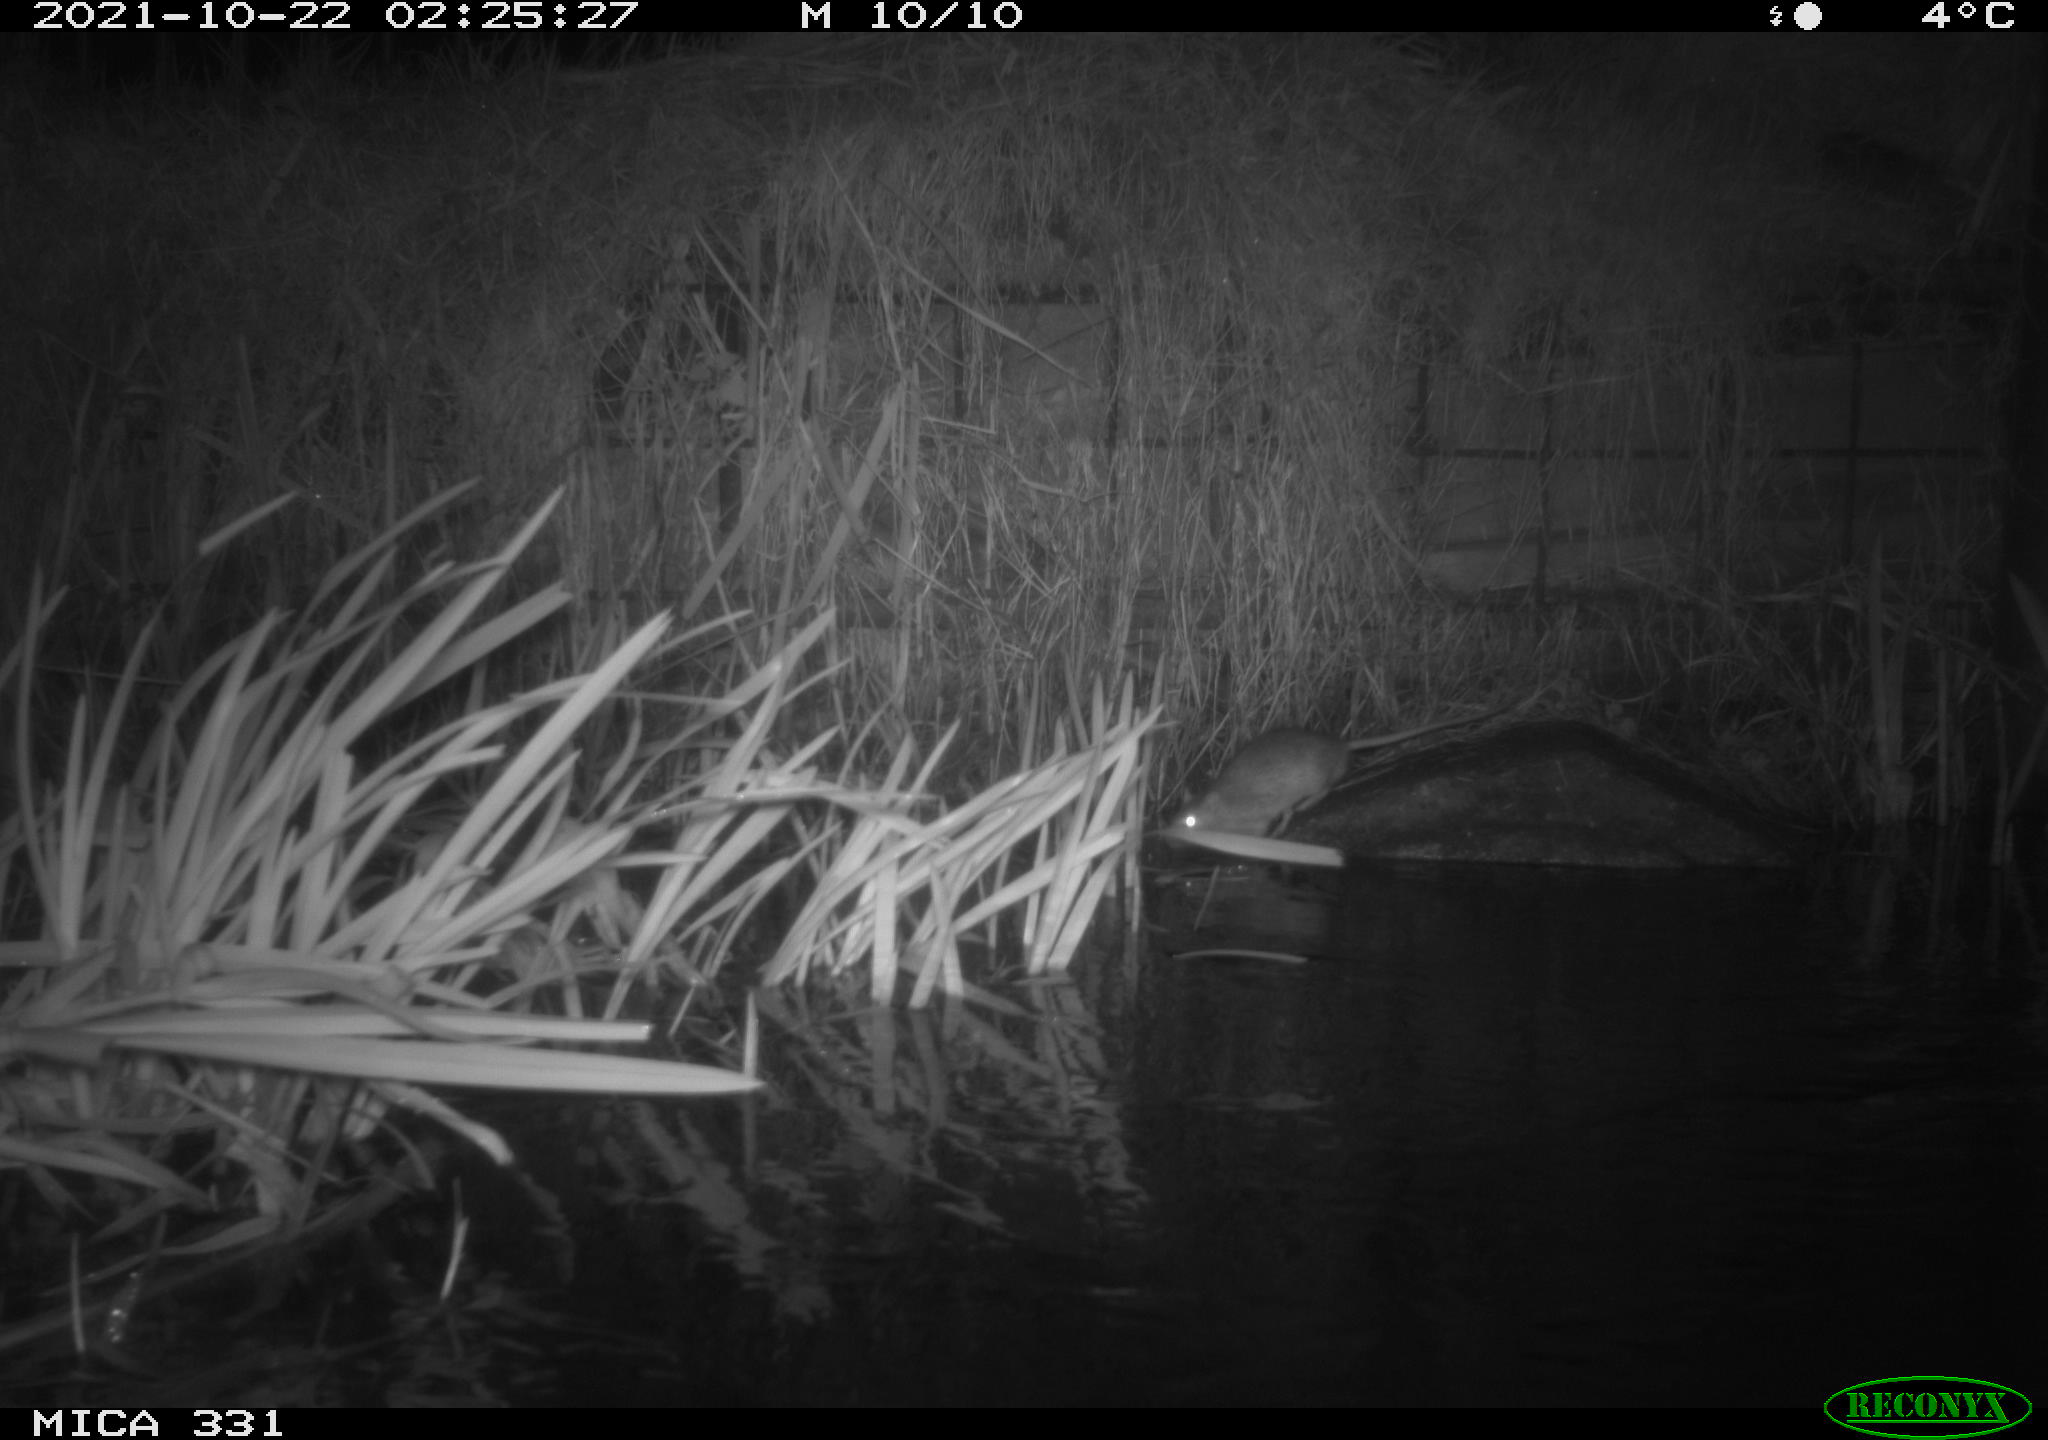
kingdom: Animalia
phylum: Chordata
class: Mammalia
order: Rodentia
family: Muridae
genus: Rattus
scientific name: Rattus norvegicus
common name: Brown rat
